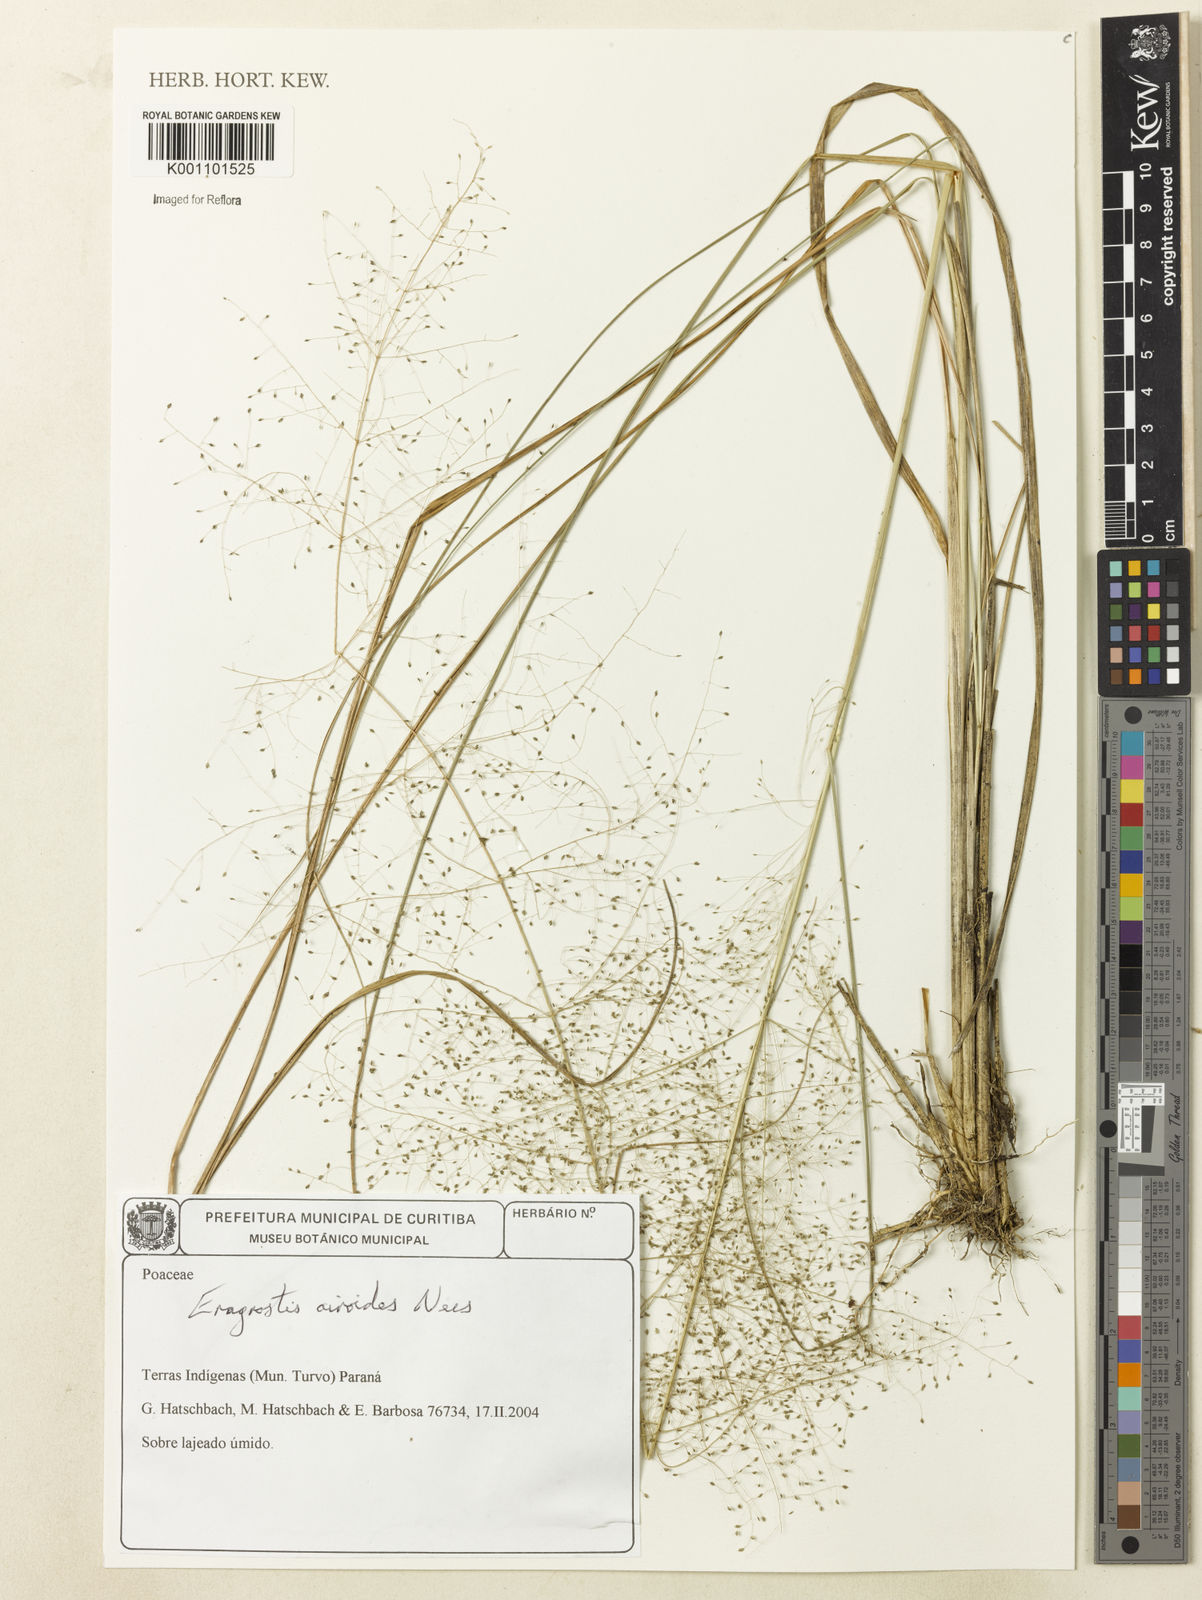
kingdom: Plantae
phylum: Tracheophyta
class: Liliopsida
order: Poales
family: Poaceae
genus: Eragrostis
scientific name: Eragrostis airoides
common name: Darnel lovegrass
